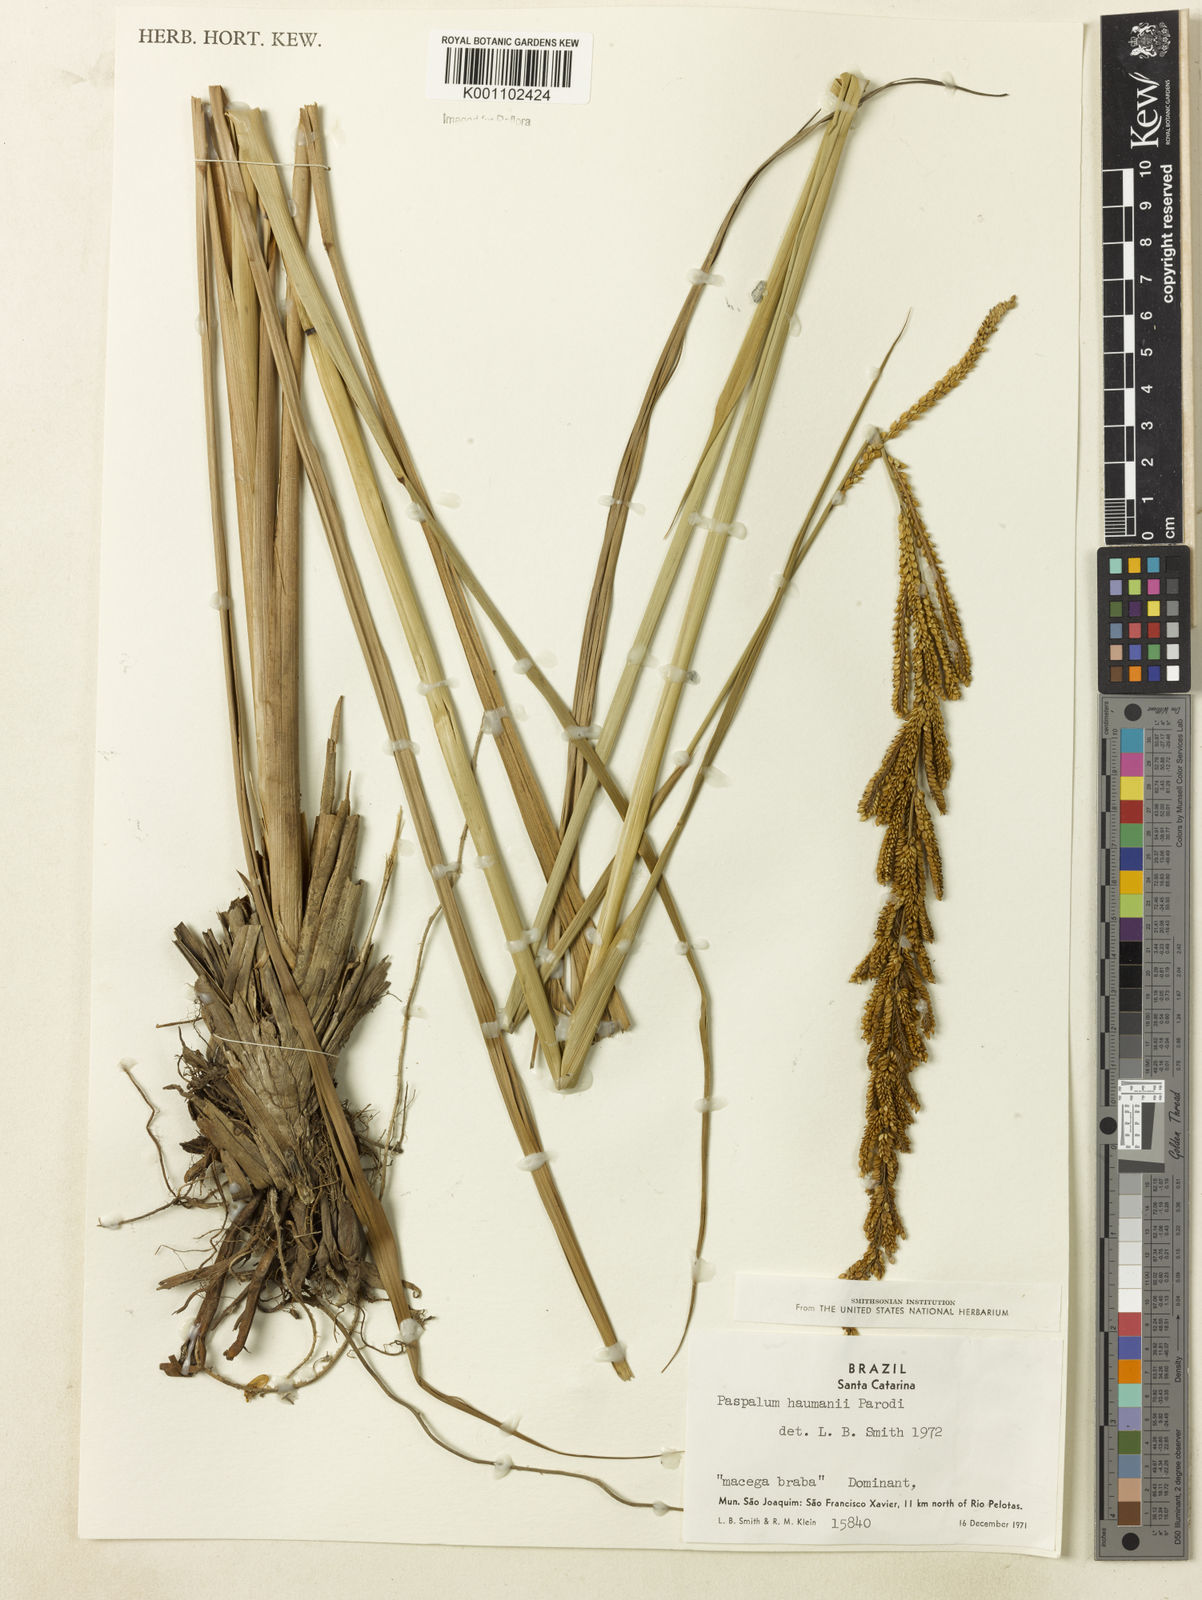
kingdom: Plantae
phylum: Tracheophyta
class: Liliopsida
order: Poales
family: Poaceae
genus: Paspalum
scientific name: Paspalum exaltatum
